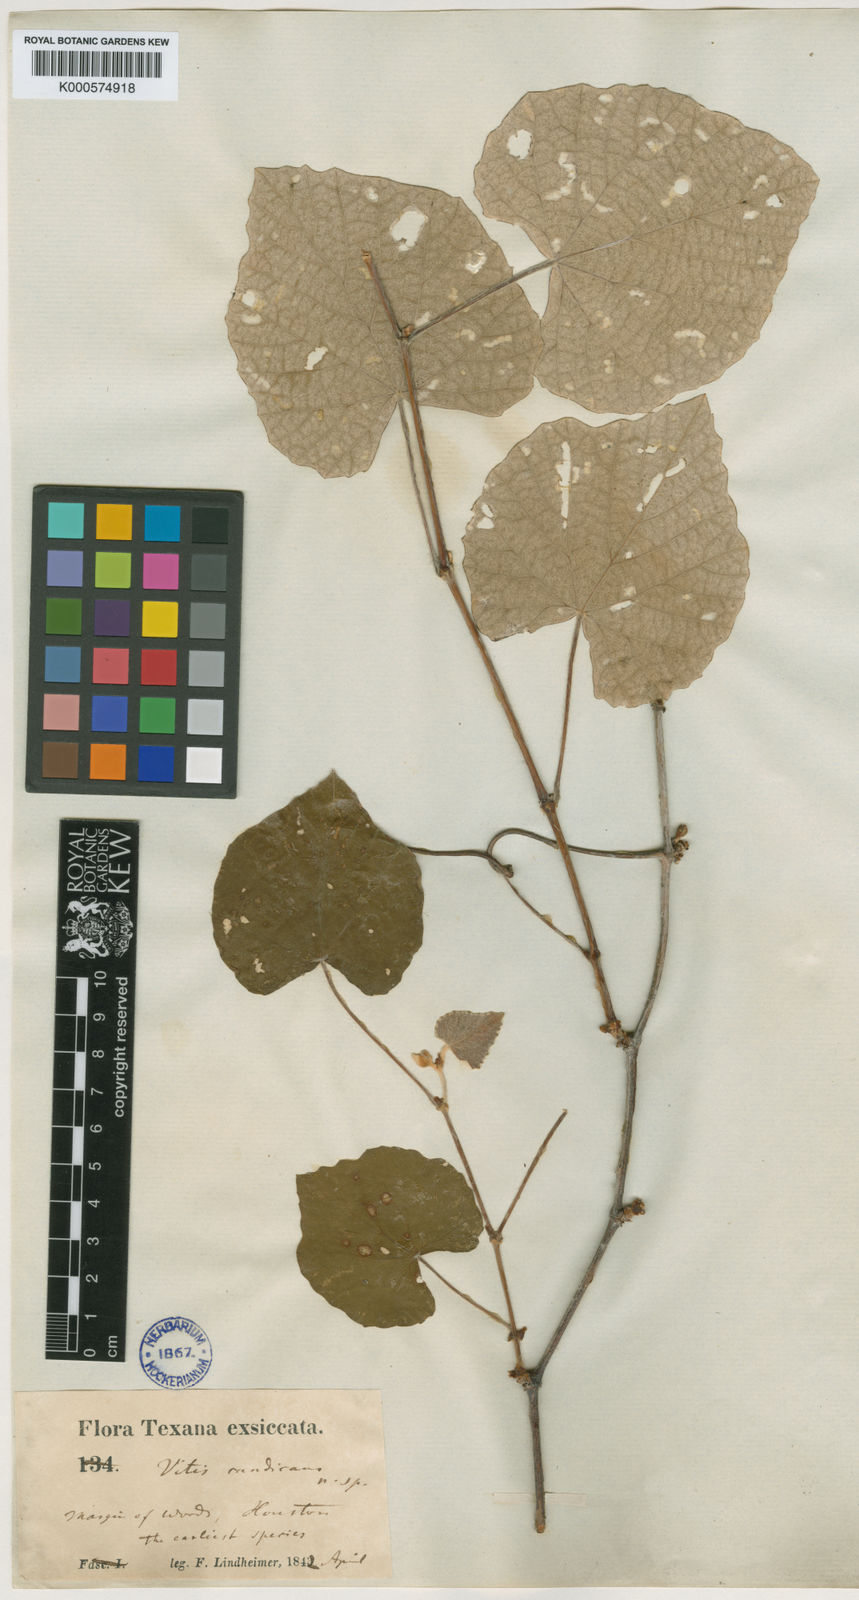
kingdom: Plantae
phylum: Tracheophyta
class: Magnoliopsida
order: Vitales
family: Vitaceae
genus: Vitis
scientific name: Vitis mustangensis
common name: Mustang grape
